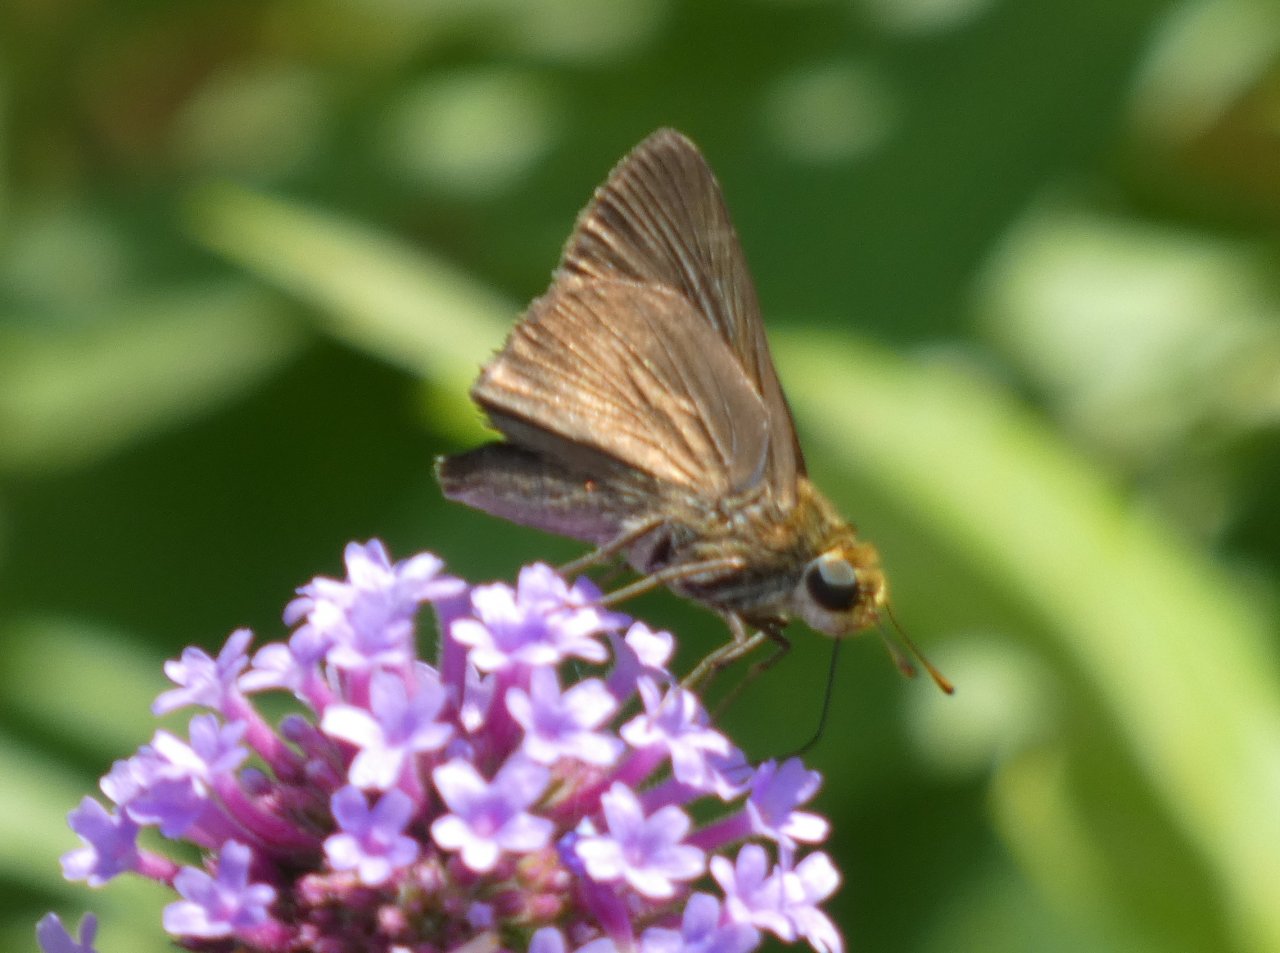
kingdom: Animalia
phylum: Arthropoda
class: Insecta
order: Lepidoptera
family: Hesperiidae
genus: Euphyes
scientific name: Euphyes vestris
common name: Dun Skipper
